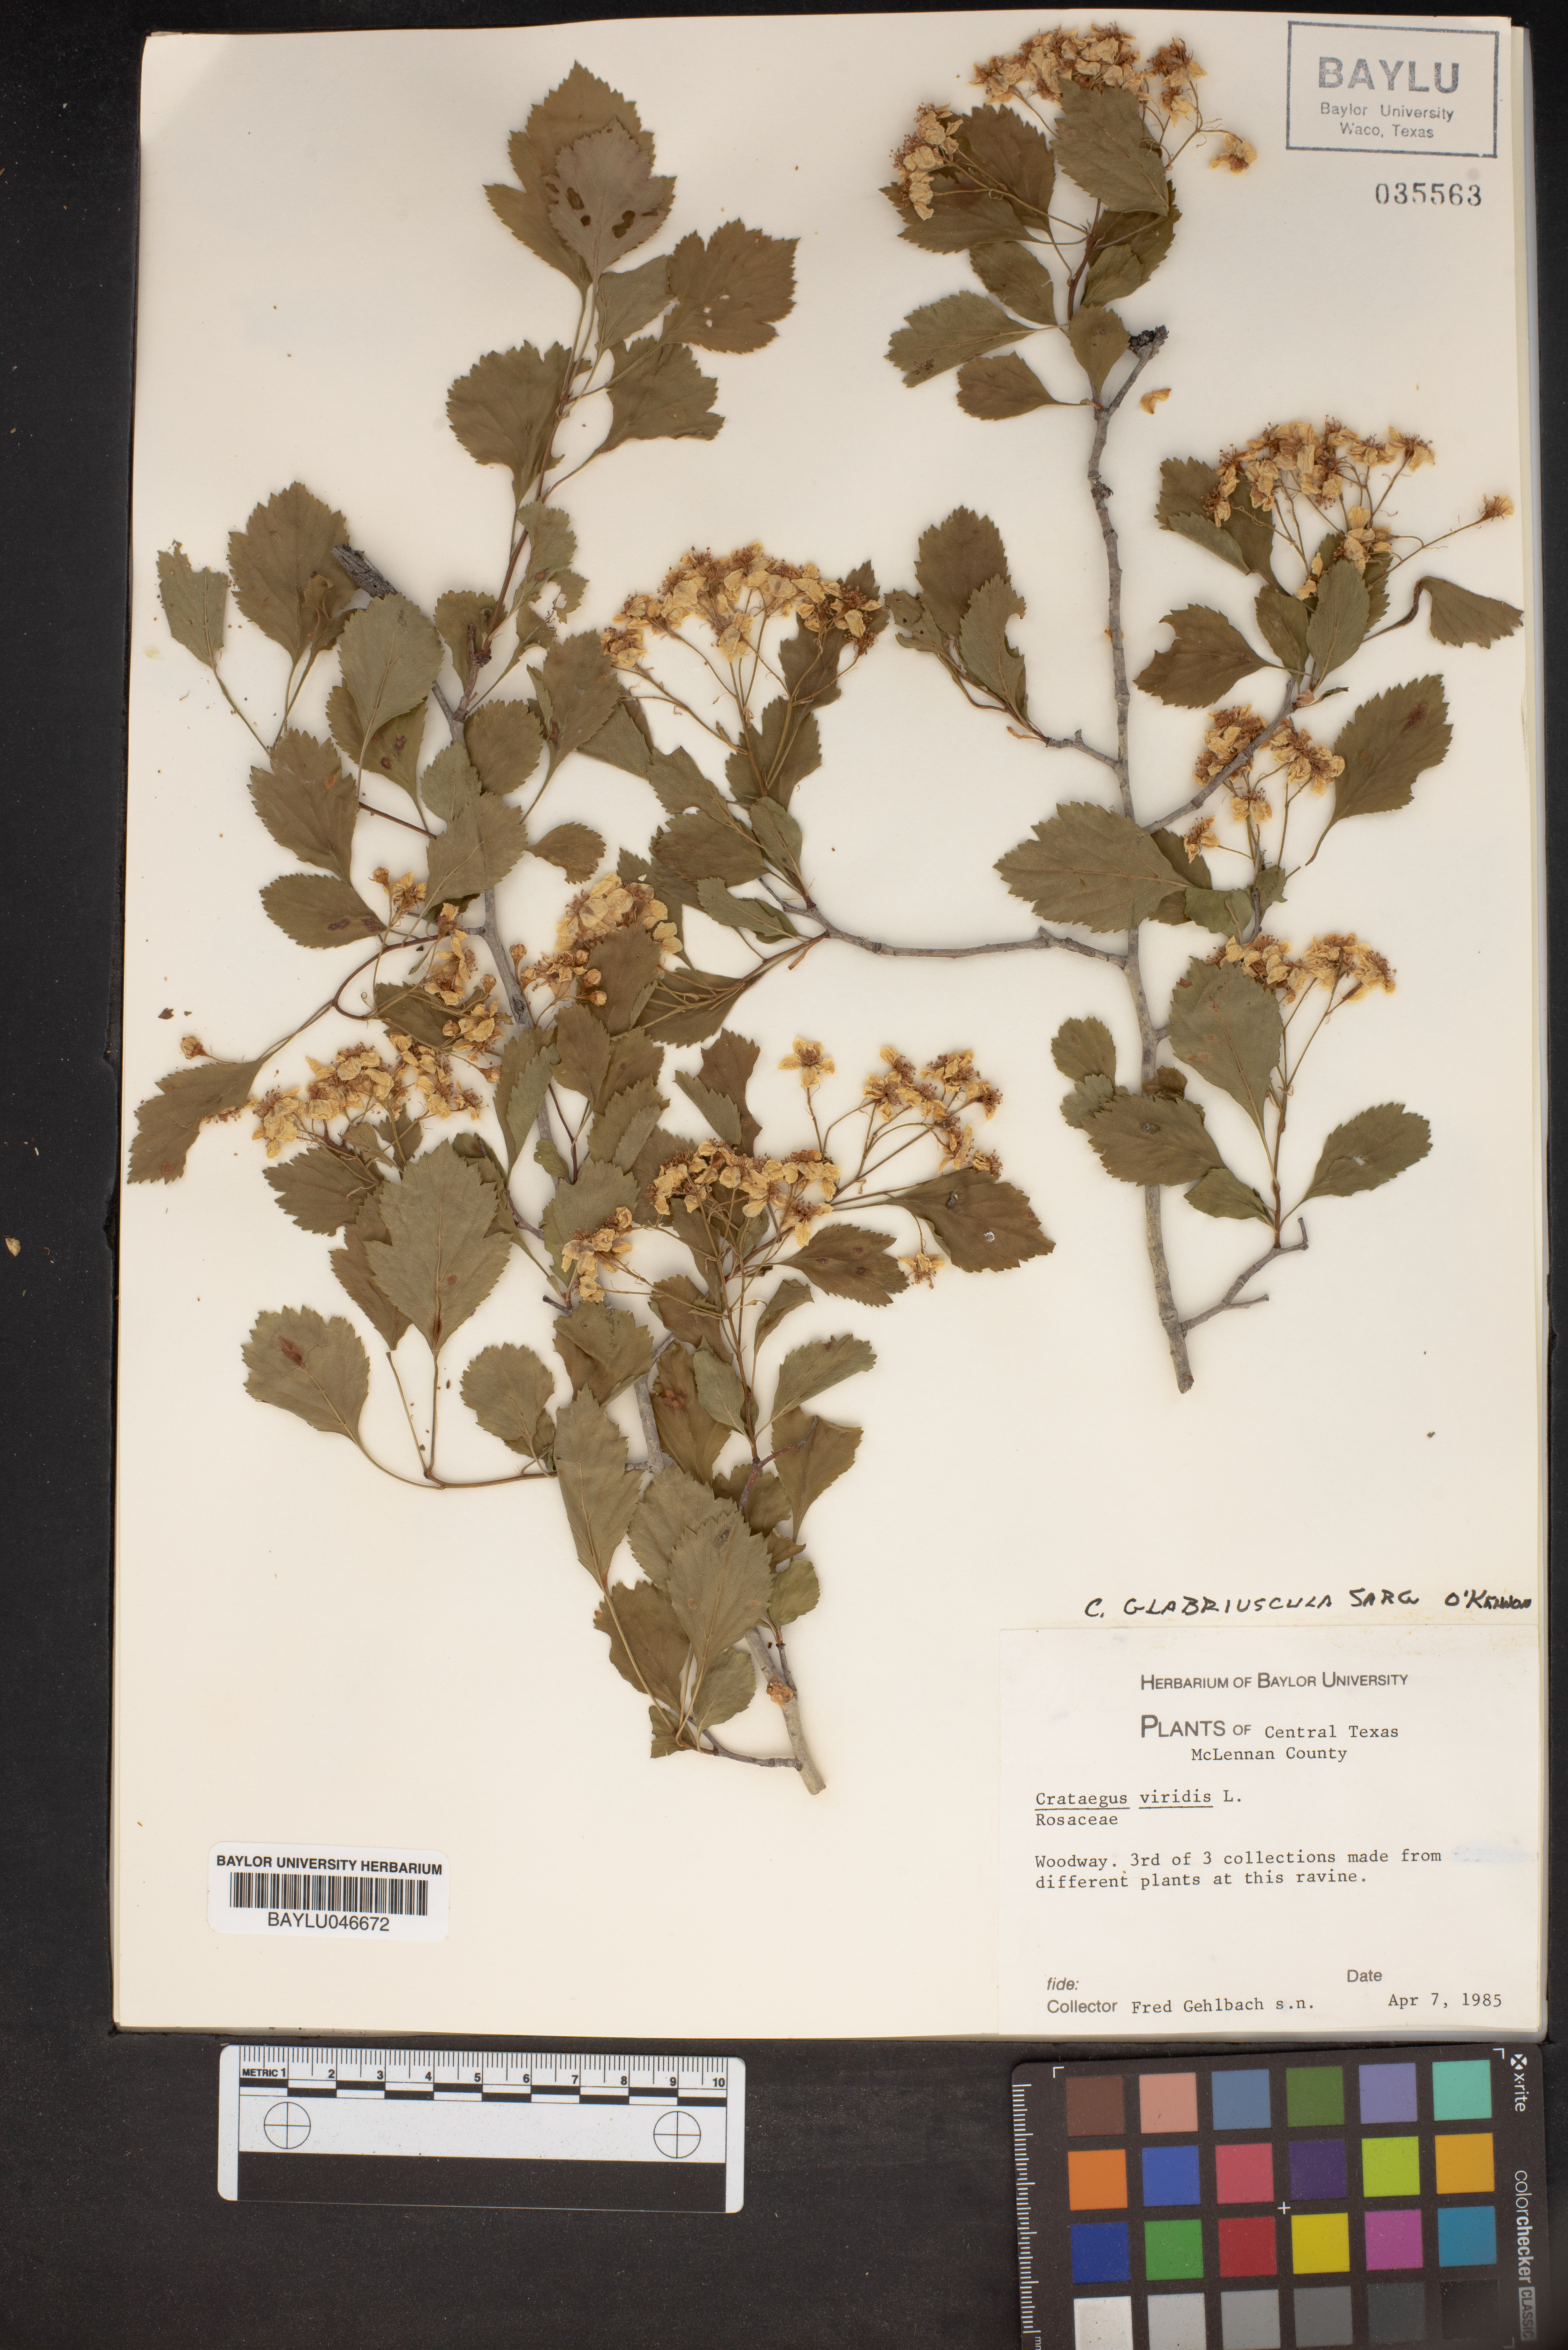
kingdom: Plantae
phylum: Tracheophyta
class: Magnoliopsida
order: Rosales
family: Rosaceae
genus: Crataegus
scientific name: Crataegus viridis
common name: Southernthorn
